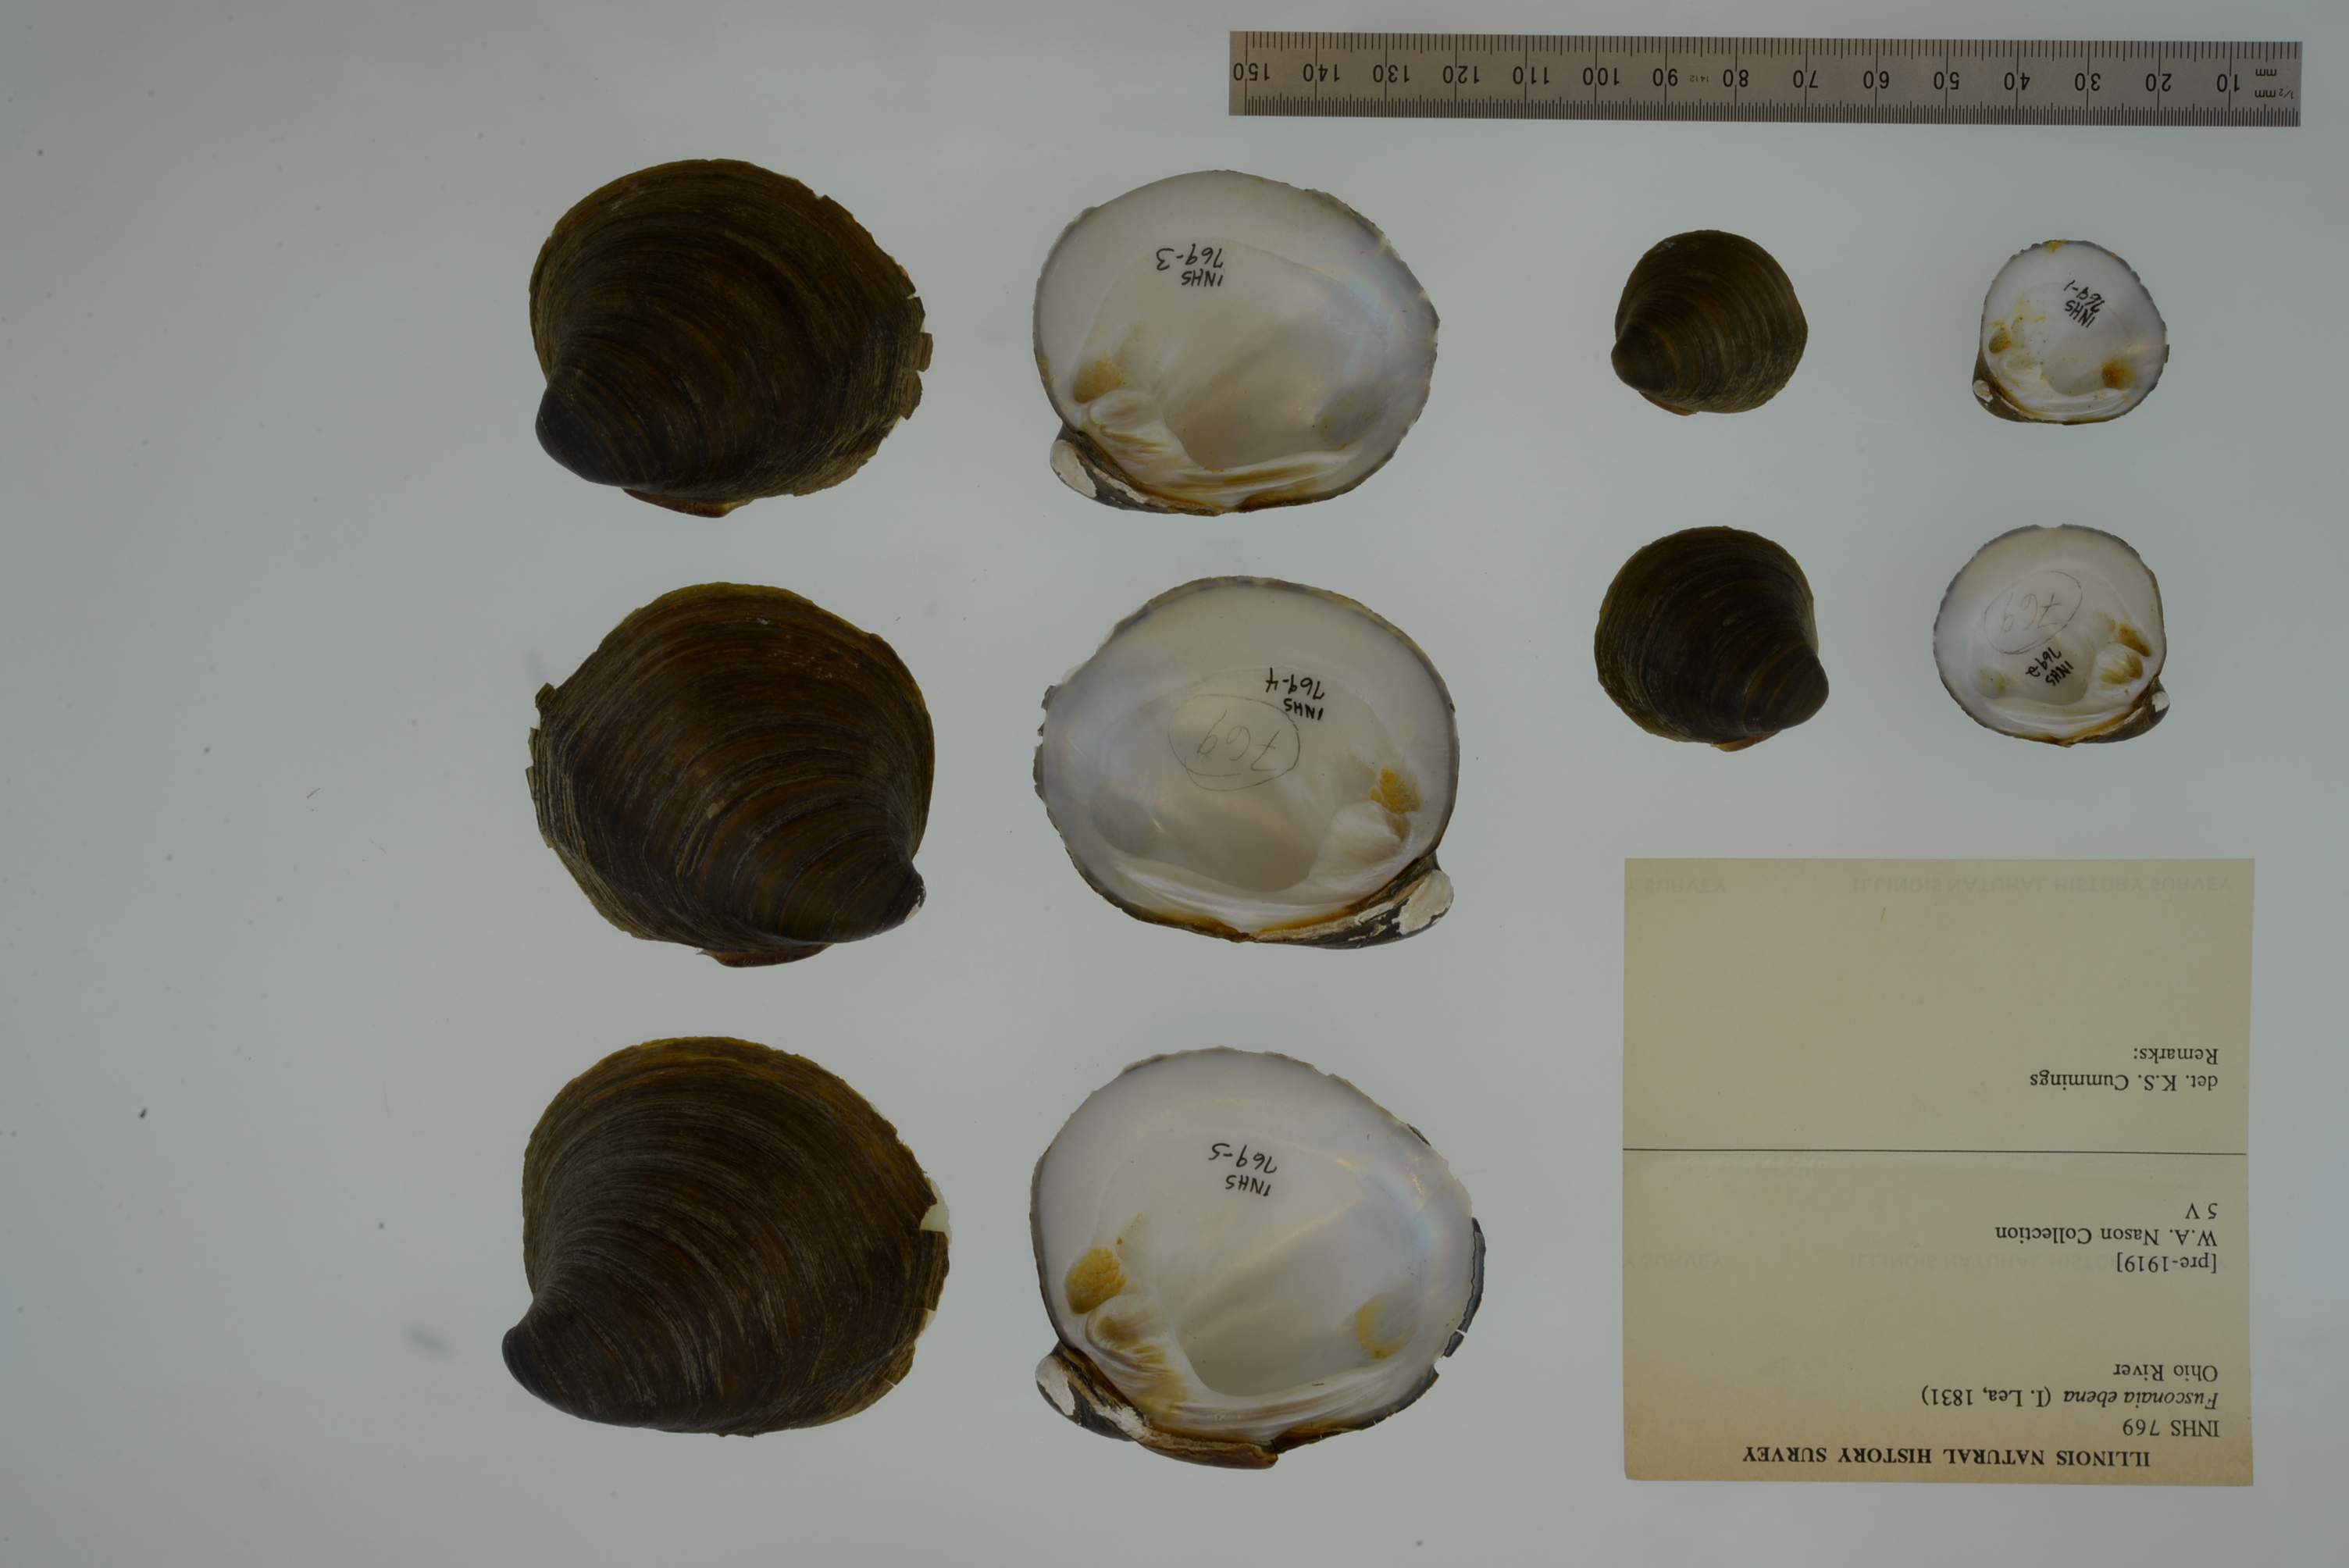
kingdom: Animalia
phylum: Mollusca
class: Bivalvia
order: Unionida
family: Unionidae
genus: Reginaia
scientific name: Reginaia ebenus
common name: Ebonyshell
